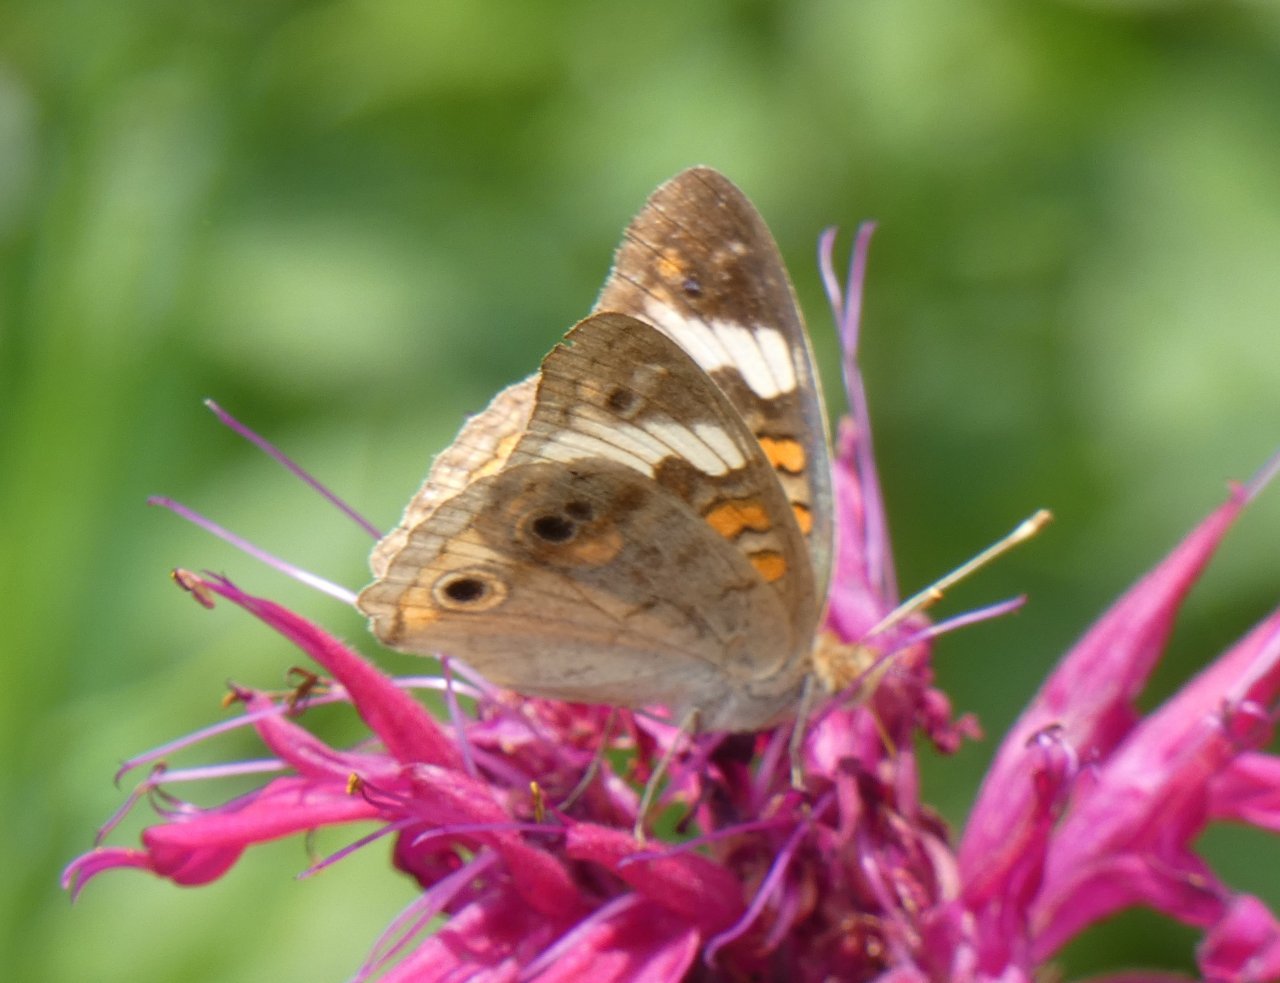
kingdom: Animalia
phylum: Arthropoda
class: Insecta
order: Lepidoptera
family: Nymphalidae
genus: Junonia
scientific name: Junonia coenia
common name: Common Buckeye
